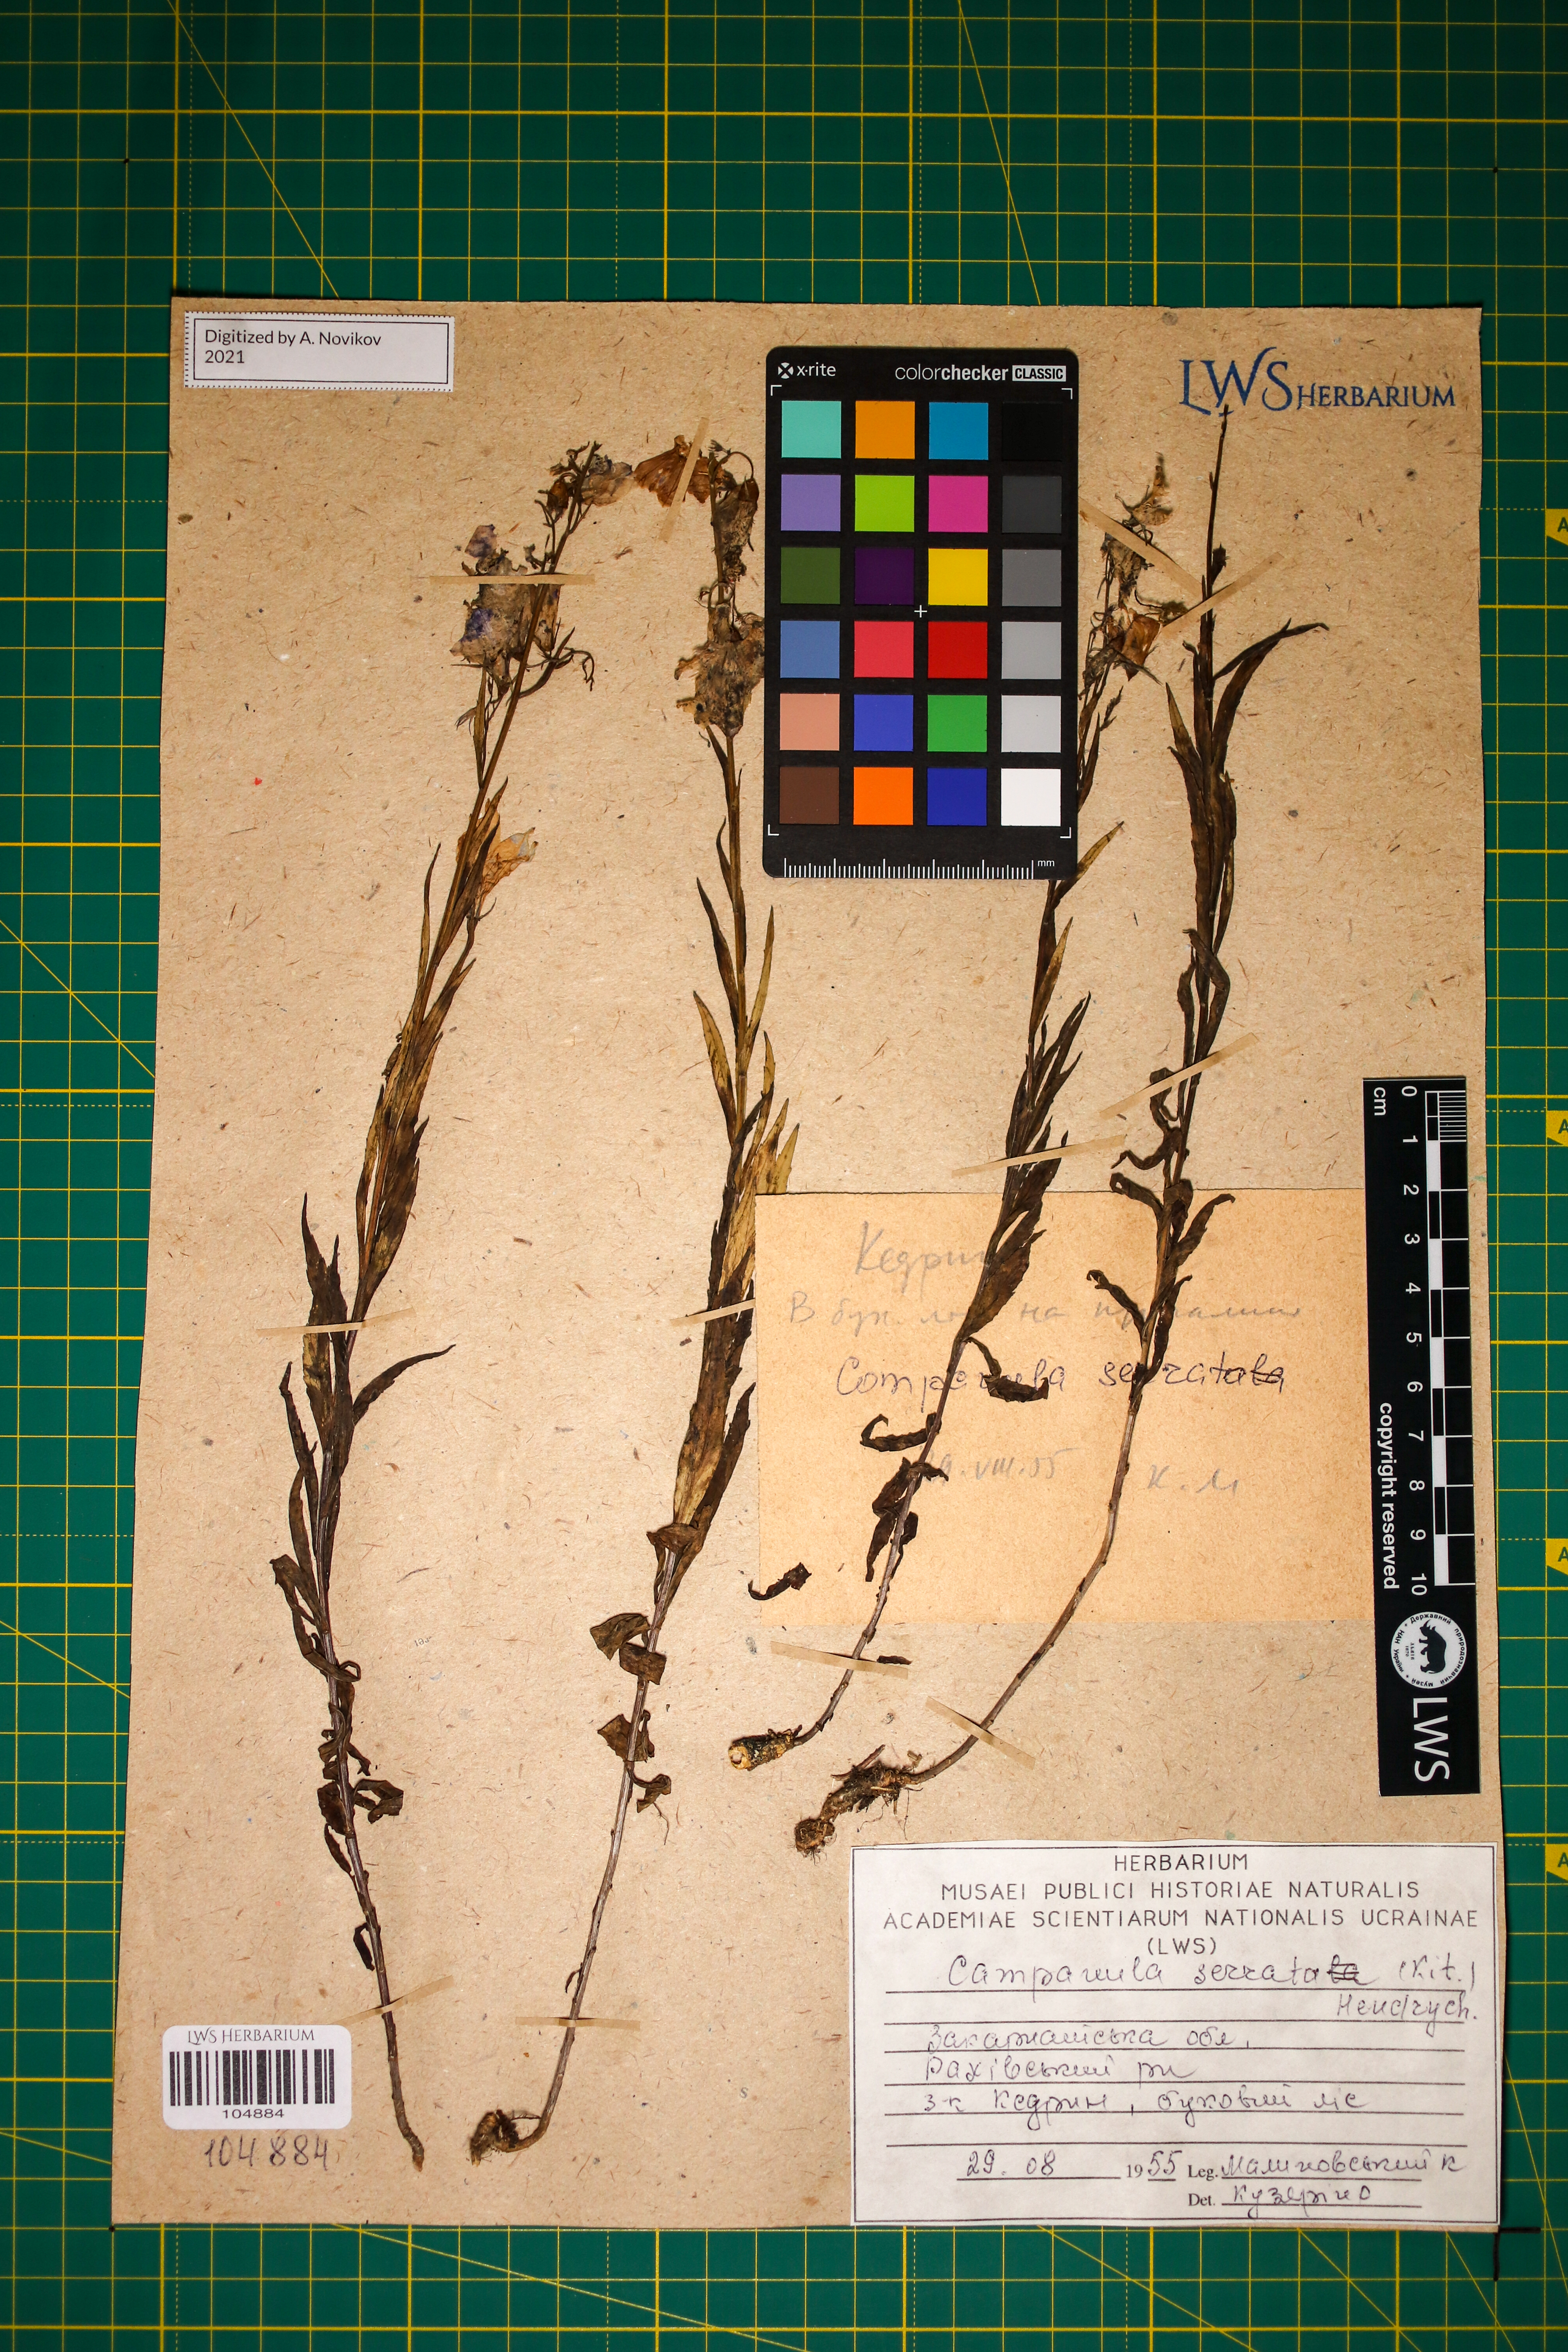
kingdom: Plantae
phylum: Tracheophyta
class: Magnoliopsida
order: Asterales
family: Campanulaceae
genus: Campanula
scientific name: Campanula serrata
